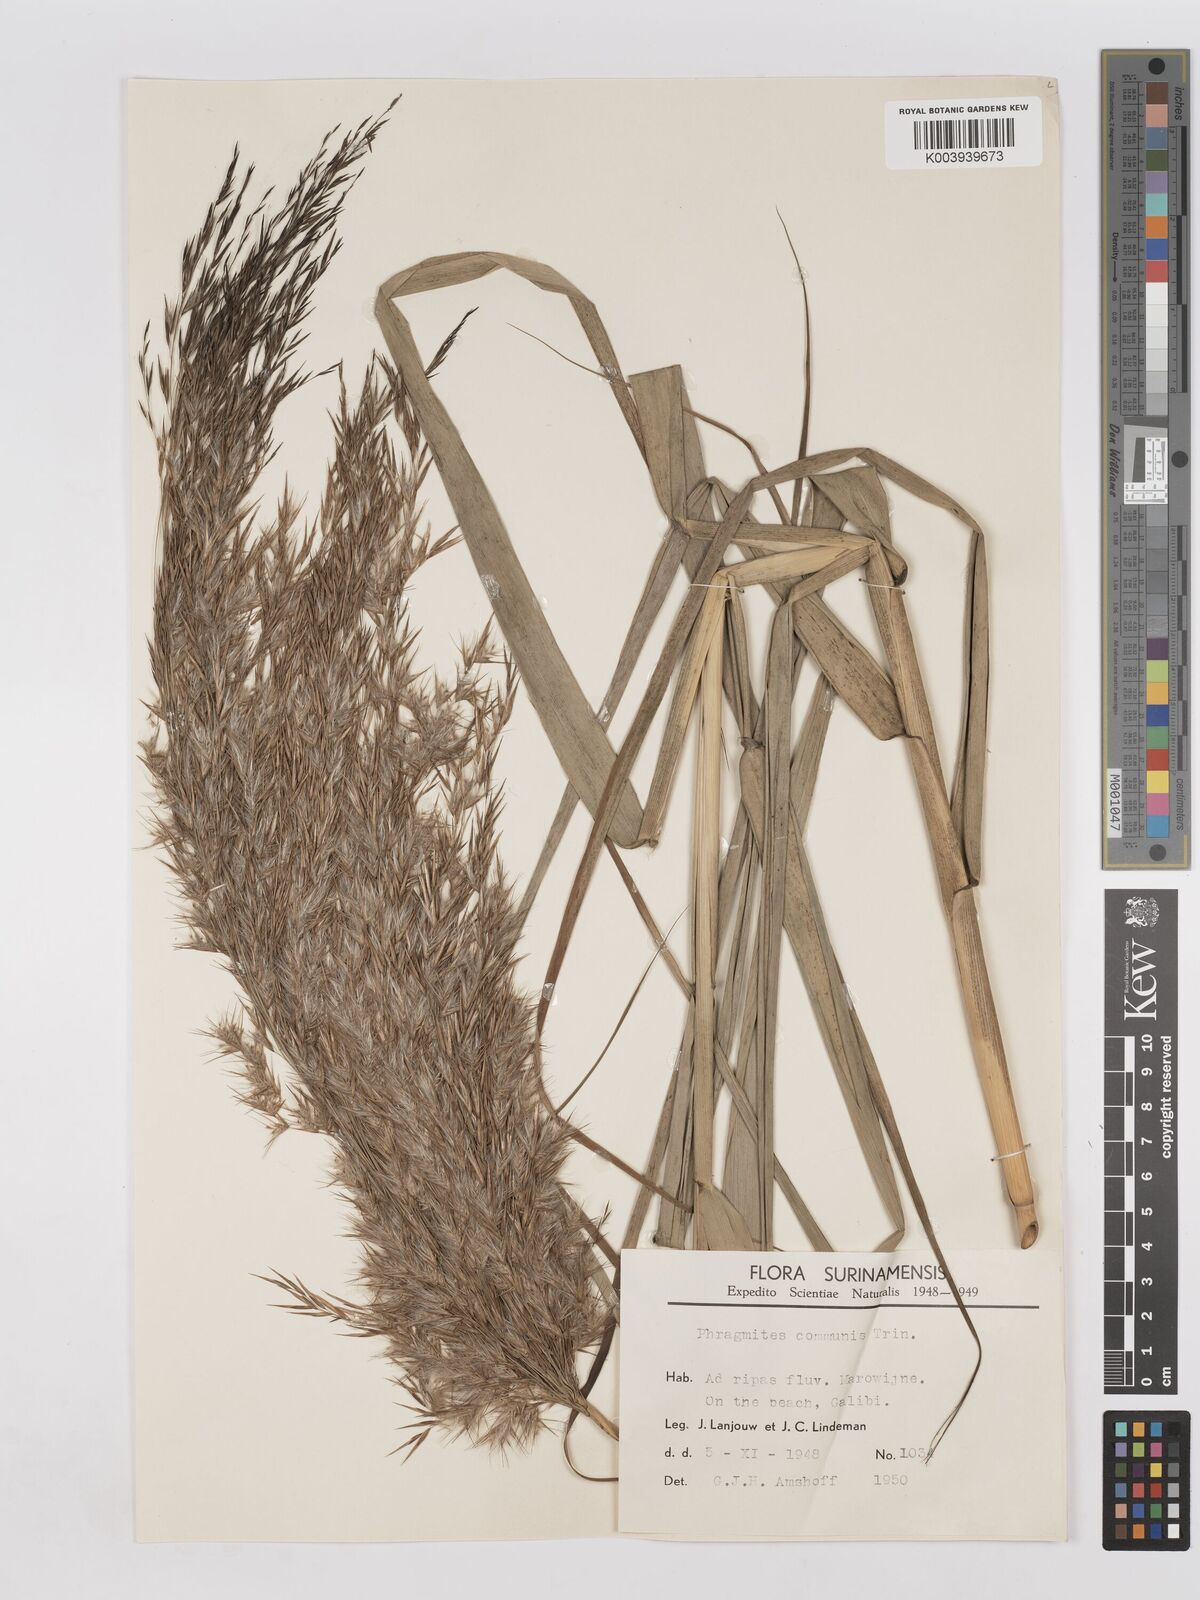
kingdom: Plantae
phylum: Tracheophyta
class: Liliopsida
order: Poales
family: Poaceae
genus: Phragmites
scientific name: Phragmites australis
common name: Common reed
